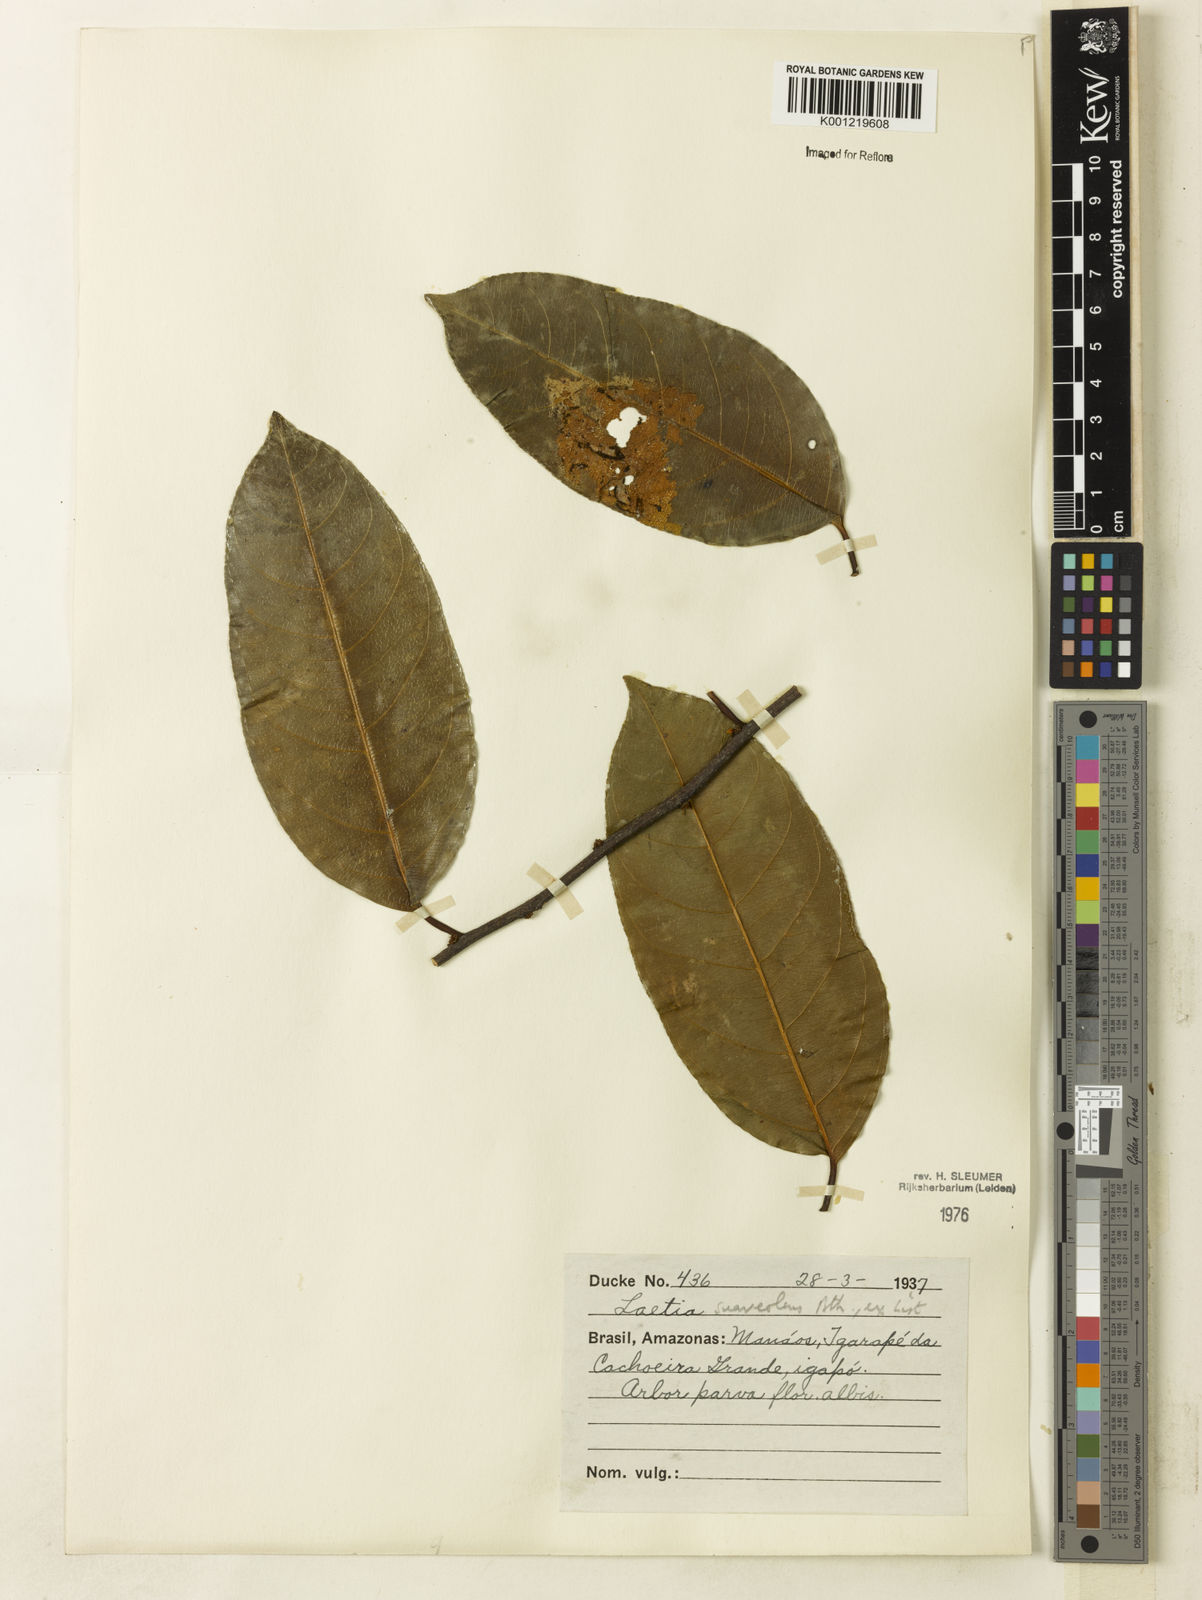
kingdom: Plantae
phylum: Tracheophyta
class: Magnoliopsida
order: Malpighiales
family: Salicaceae
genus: Casearia
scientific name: Casearia suaveolens
